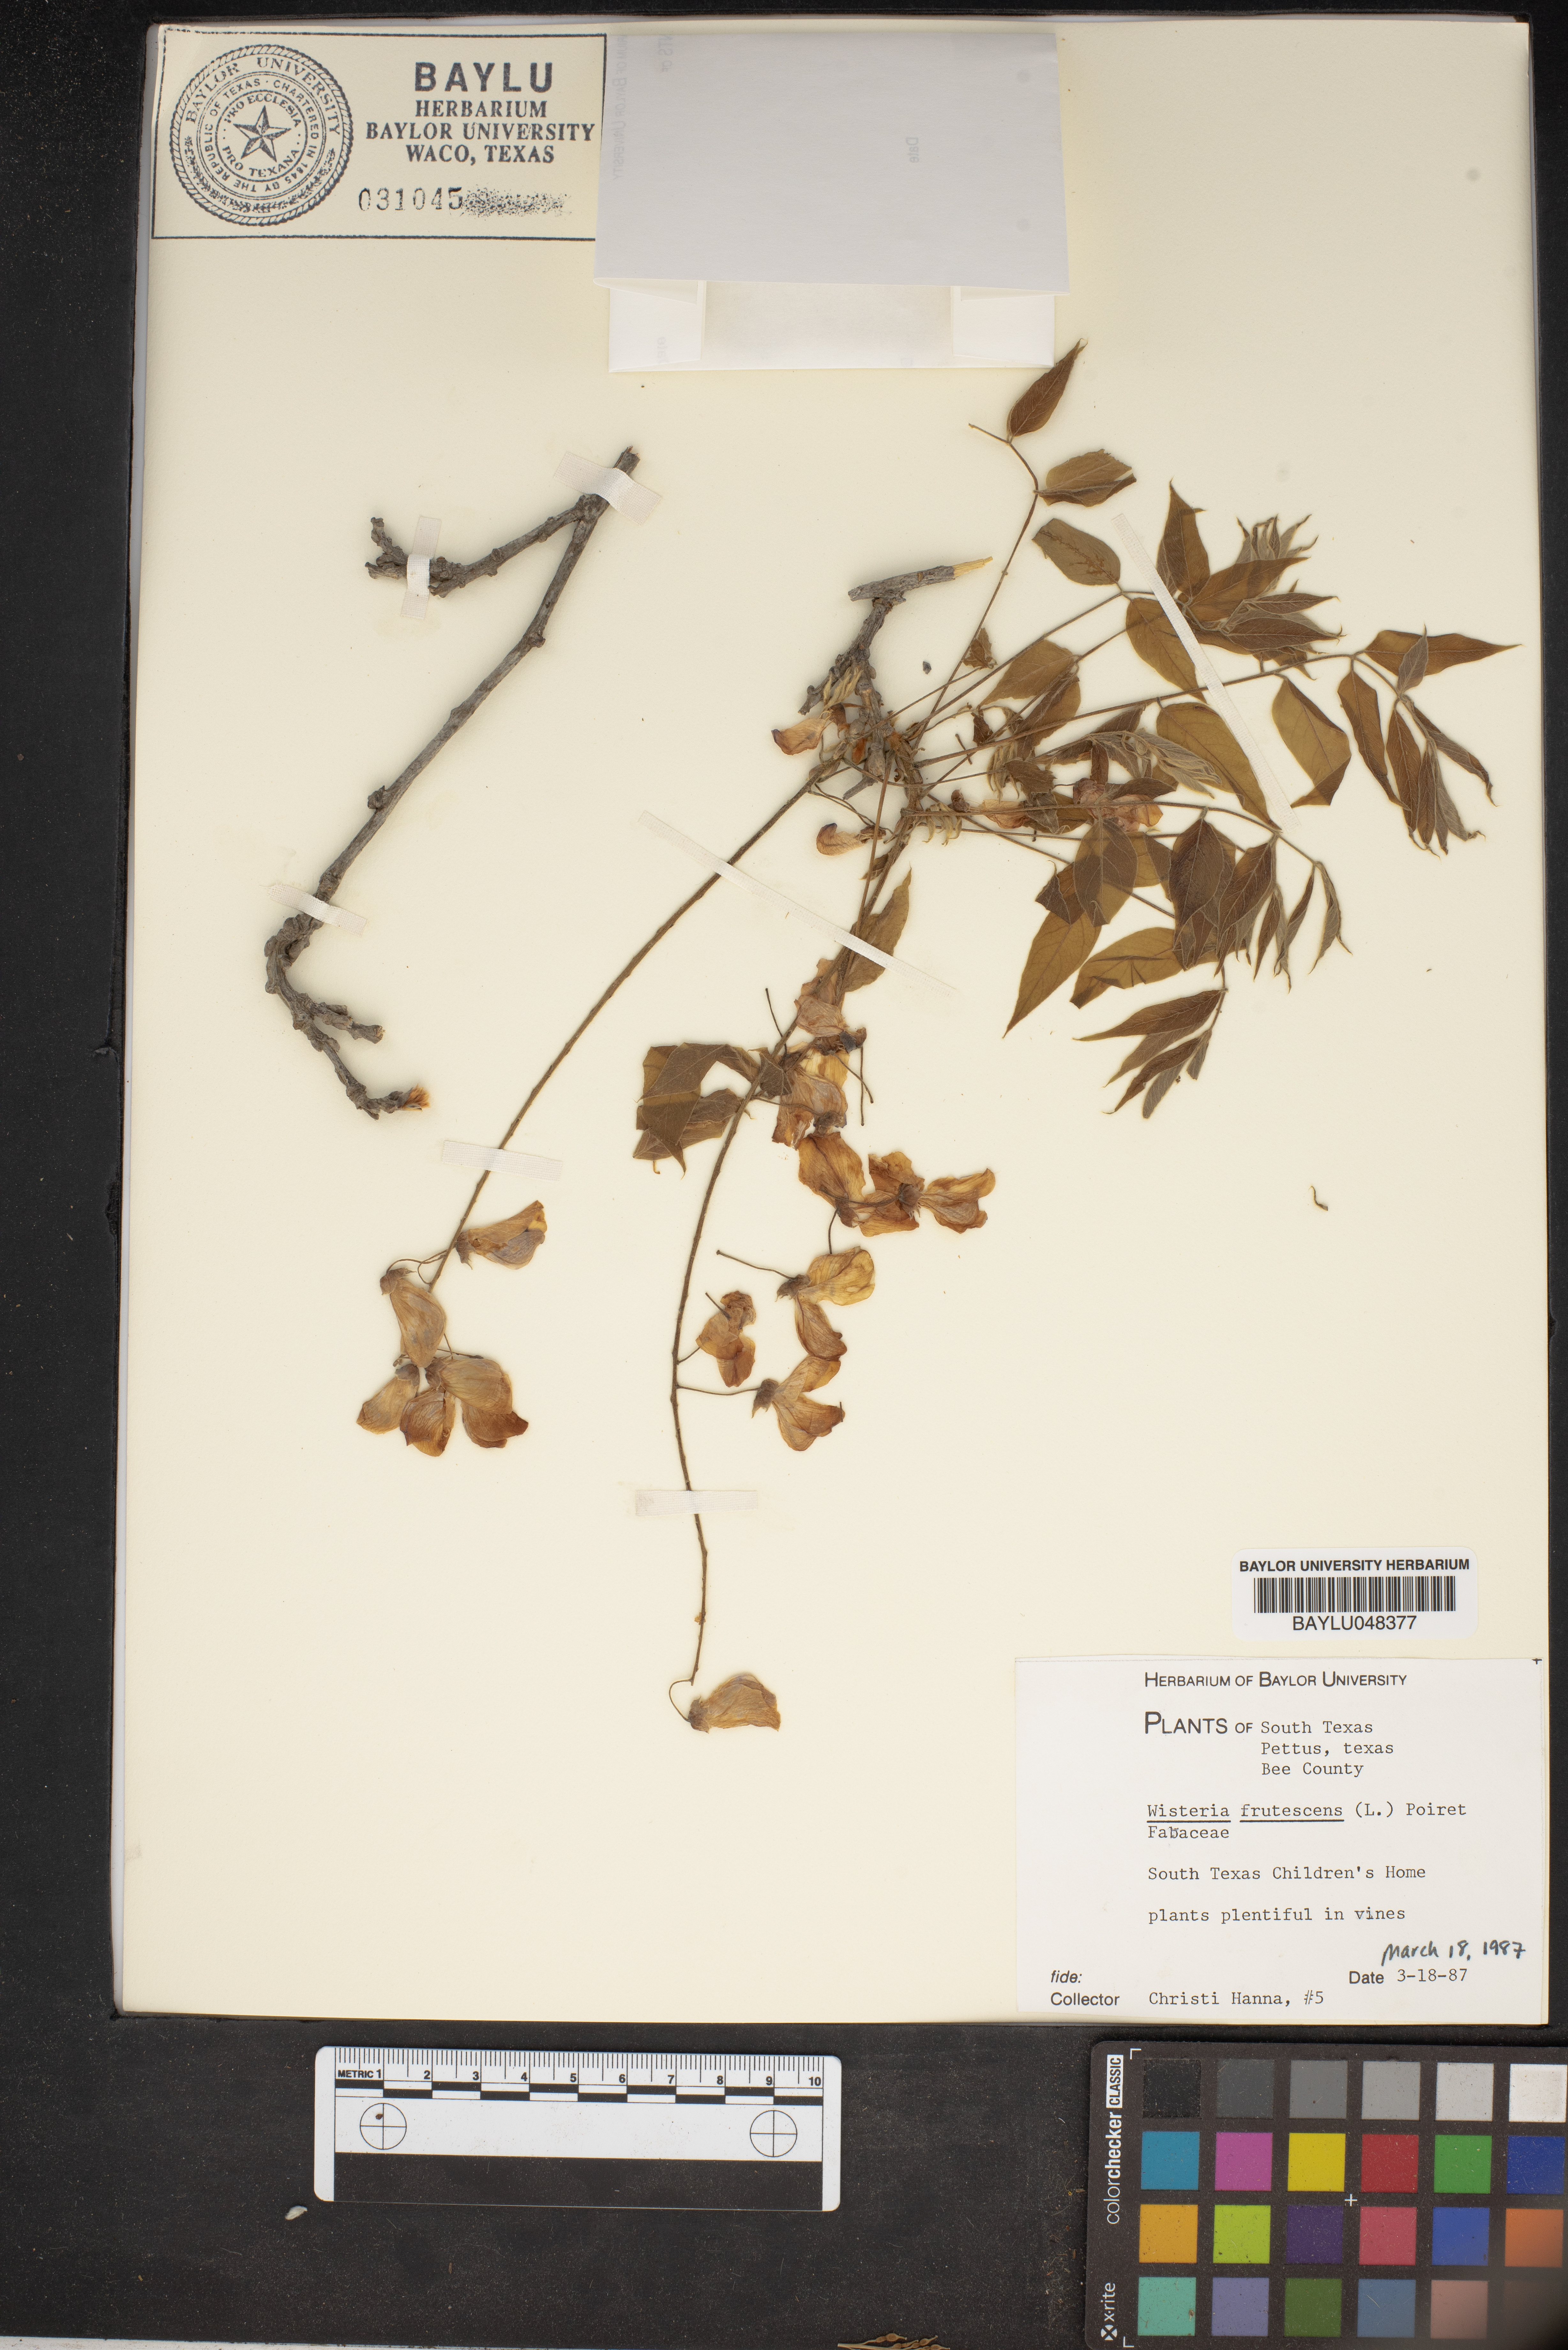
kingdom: Plantae
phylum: Tracheophyta
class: Magnoliopsida
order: Fabales
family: Fabaceae
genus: Wisteria
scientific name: Wisteria frutescens
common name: American wisteria
